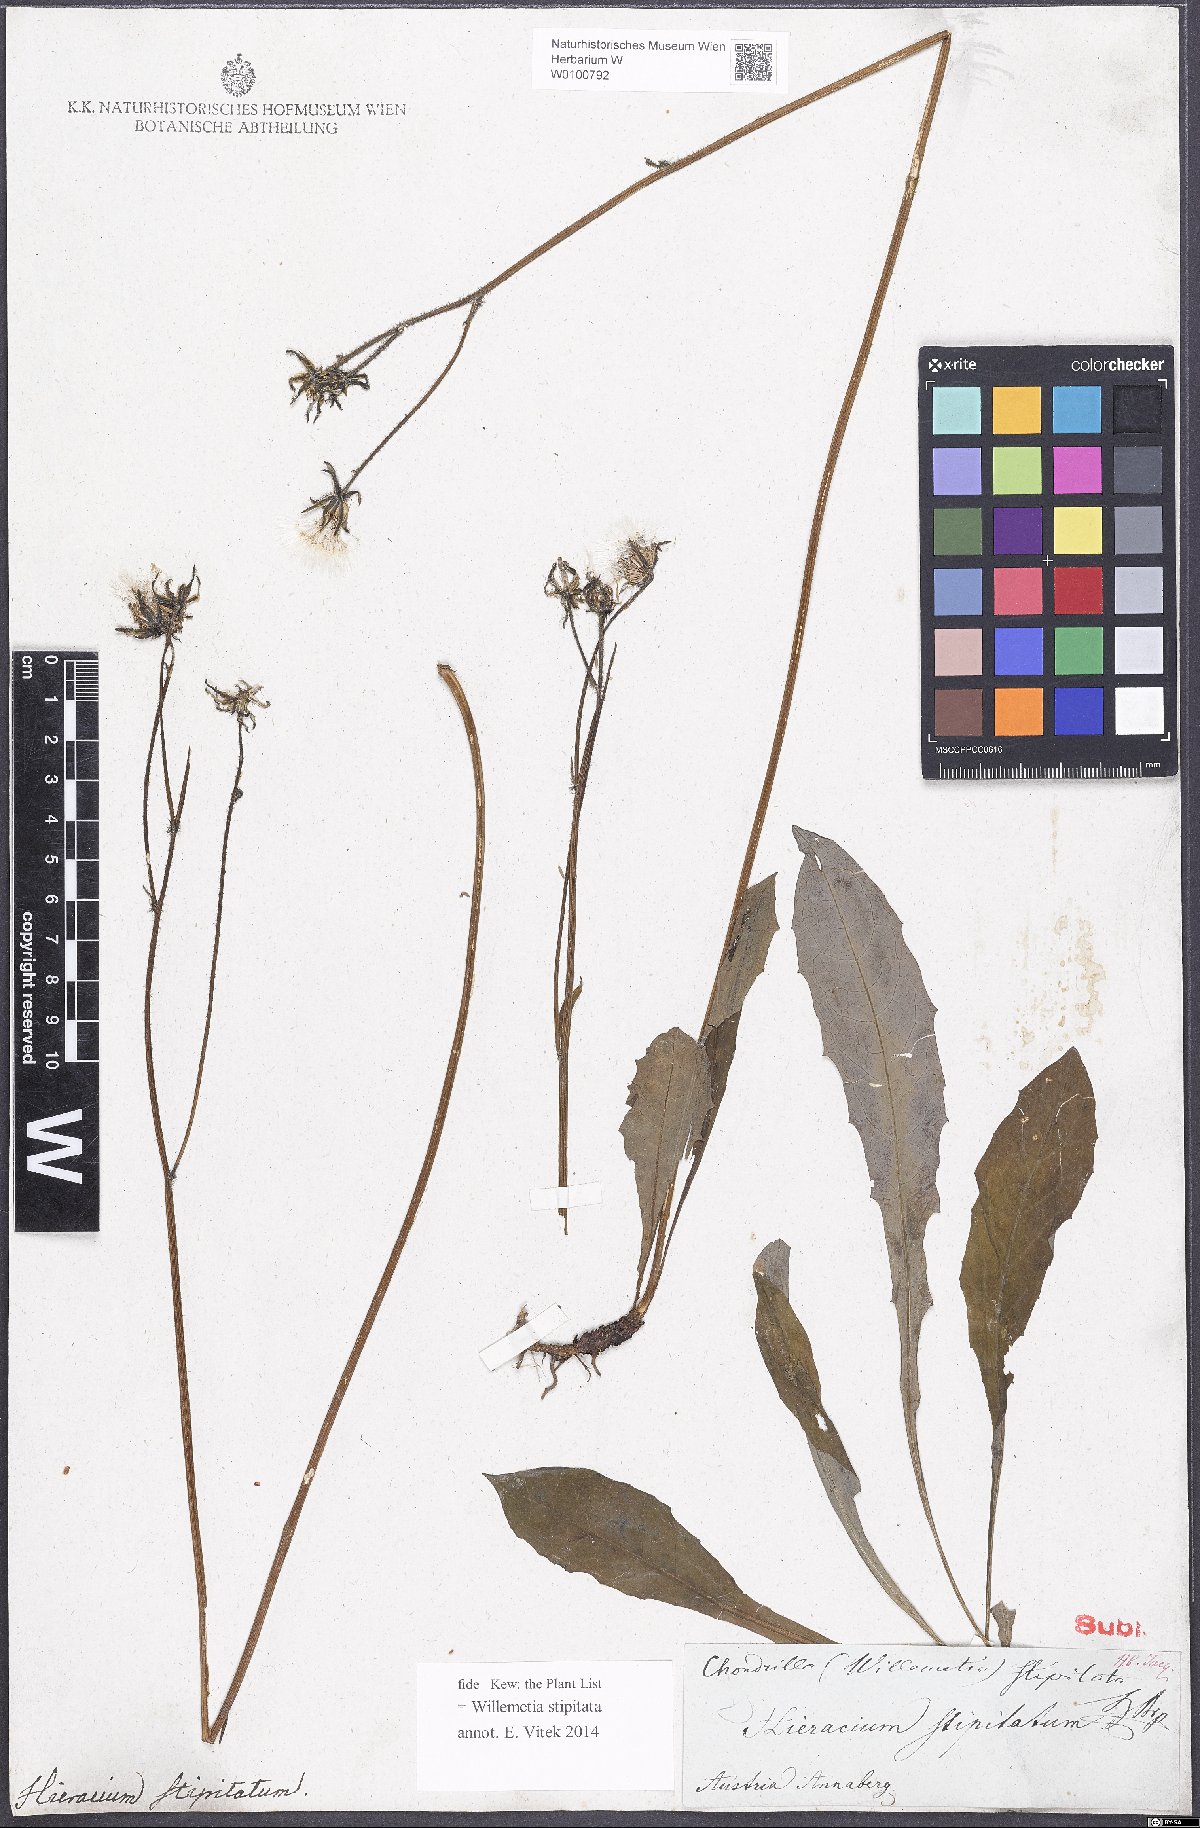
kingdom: Plantae
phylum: Tracheophyta
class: Magnoliopsida
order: Asterales
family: Asteraceae
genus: Willemetia
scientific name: Willemetia stipitata
